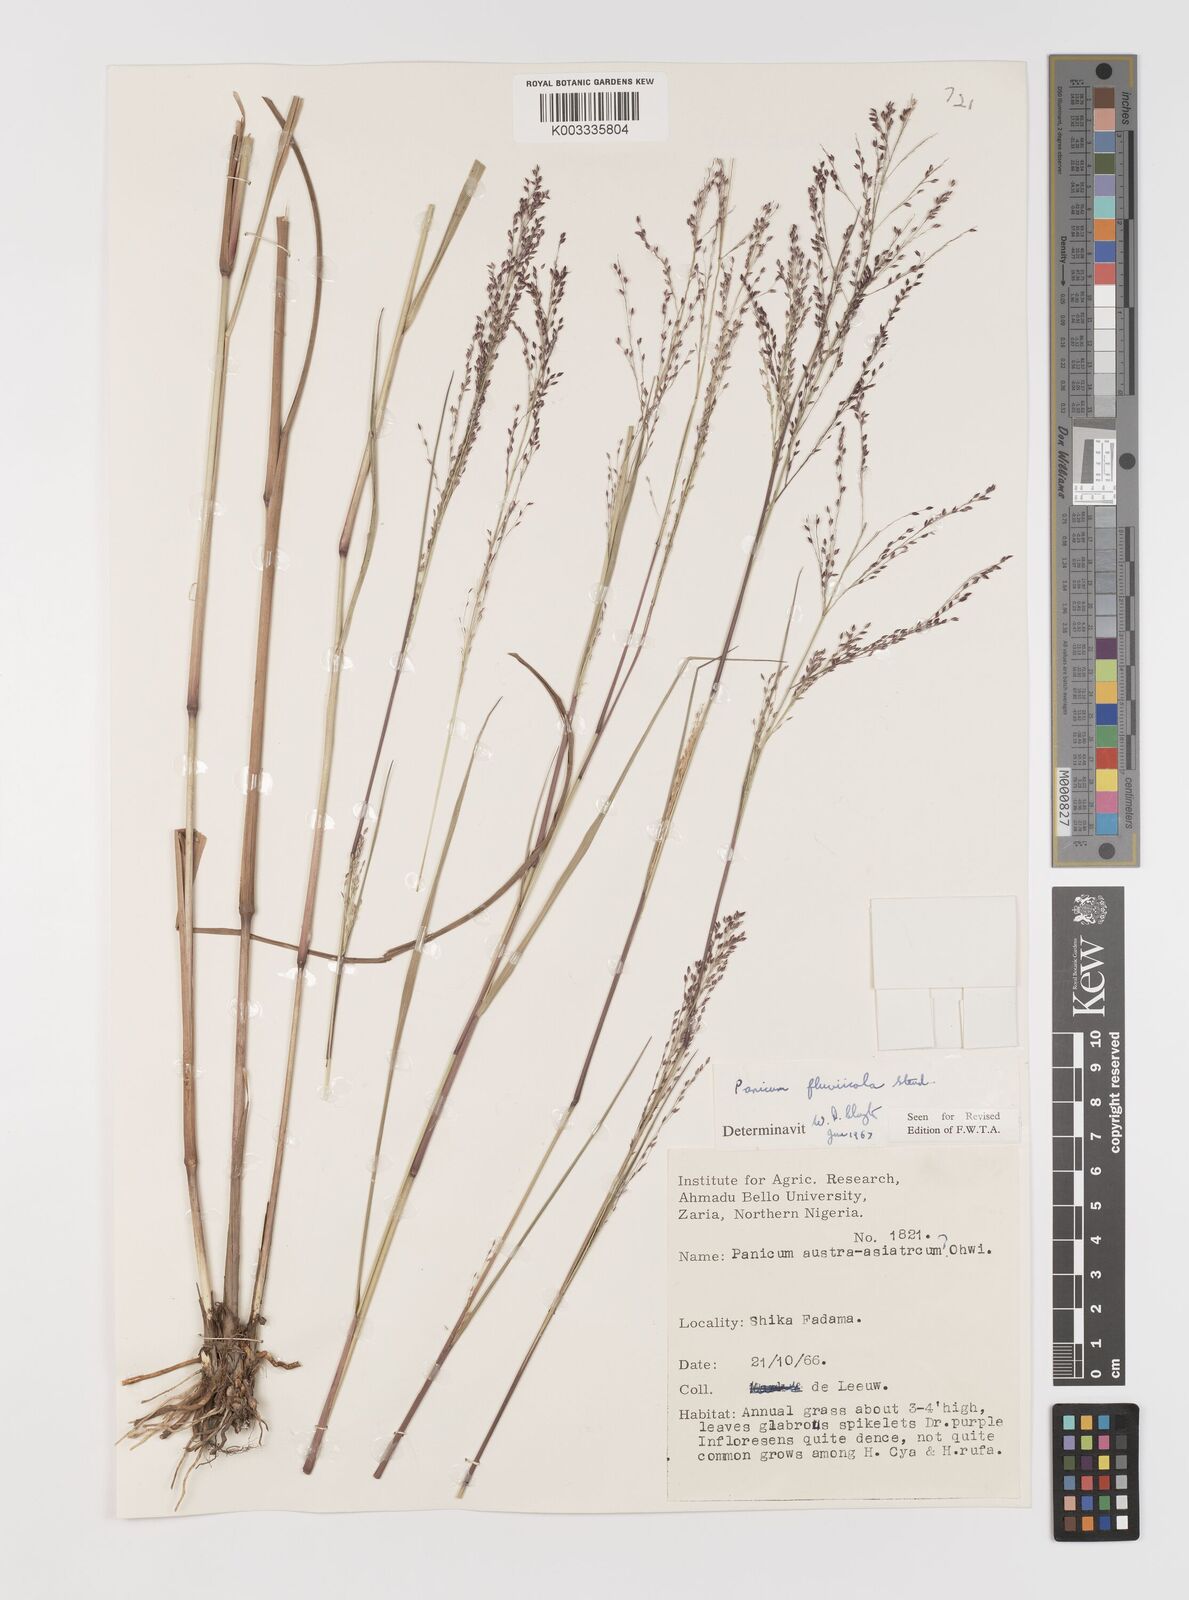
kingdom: Plantae
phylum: Tracheophyta
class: Liliopsida
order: Poales
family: Poaceae
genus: Panicum
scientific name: Panicum fluviicola
